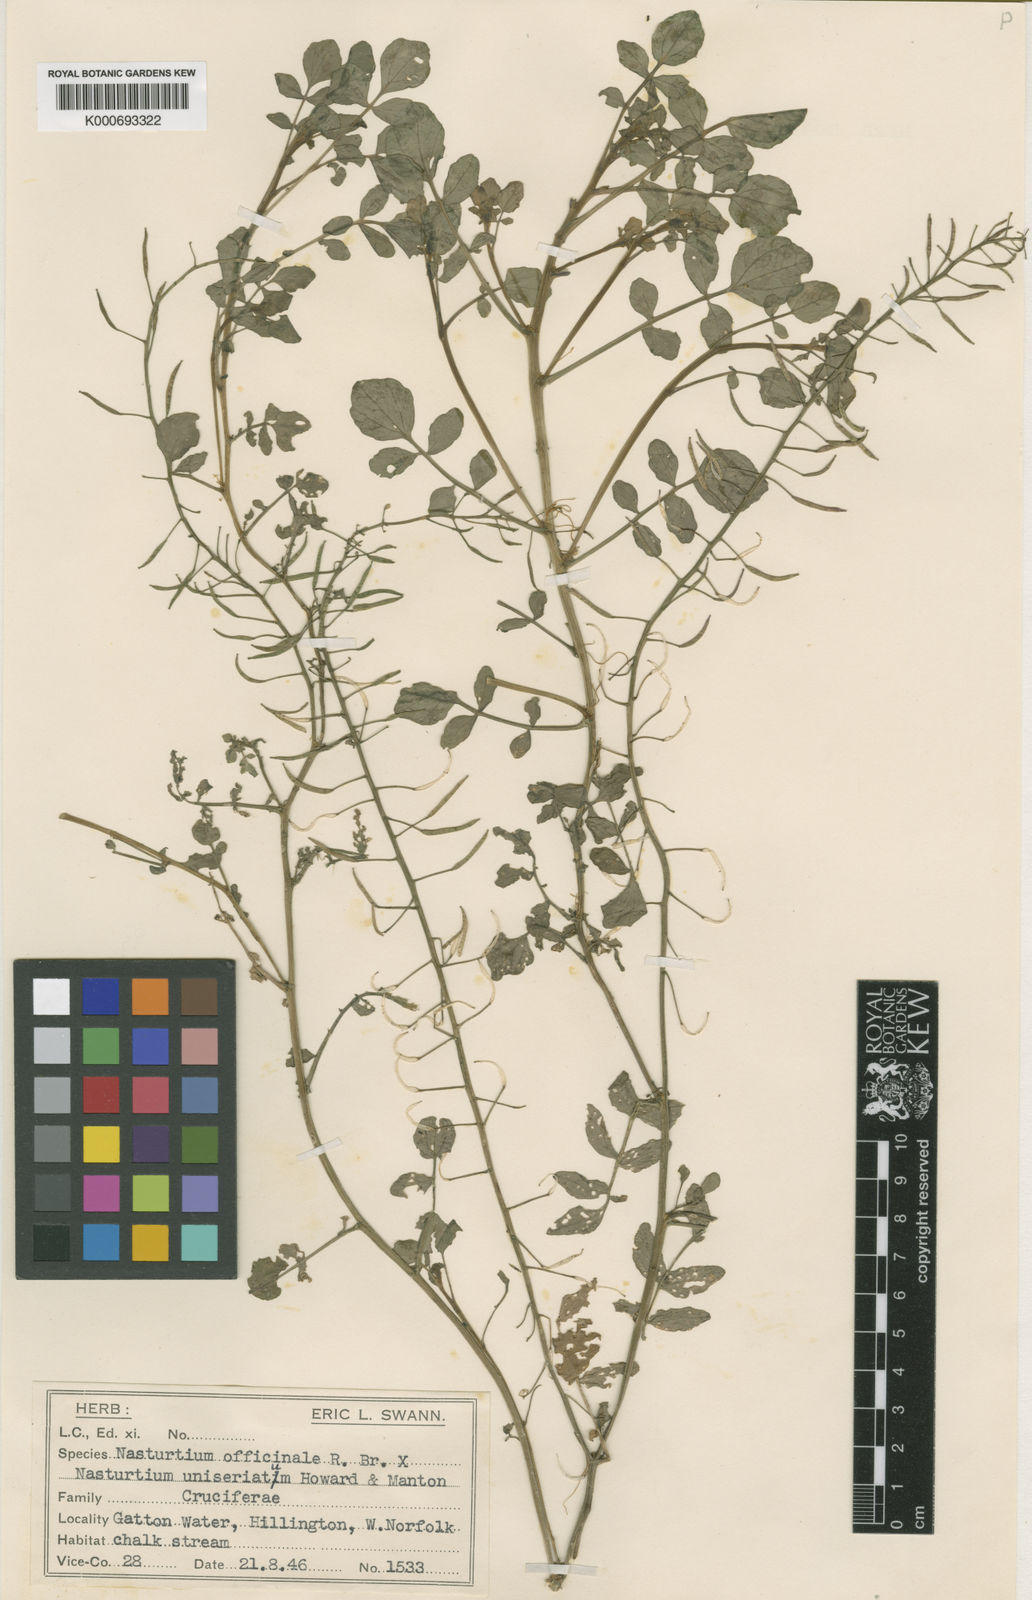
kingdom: Plantae
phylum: Tracheophyta
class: Magnoliopsida
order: Brassicales
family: Brassicaceae
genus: Nasturtium
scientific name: Nasturtium
